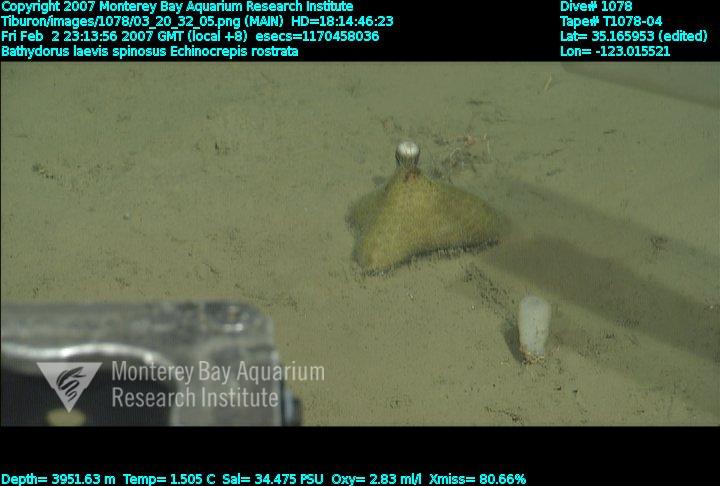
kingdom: Animalia
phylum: Porifera
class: Hexactinellida
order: Lyssacinosida
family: Rossellidae
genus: Bathydorus
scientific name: Bathydorus spinosus
